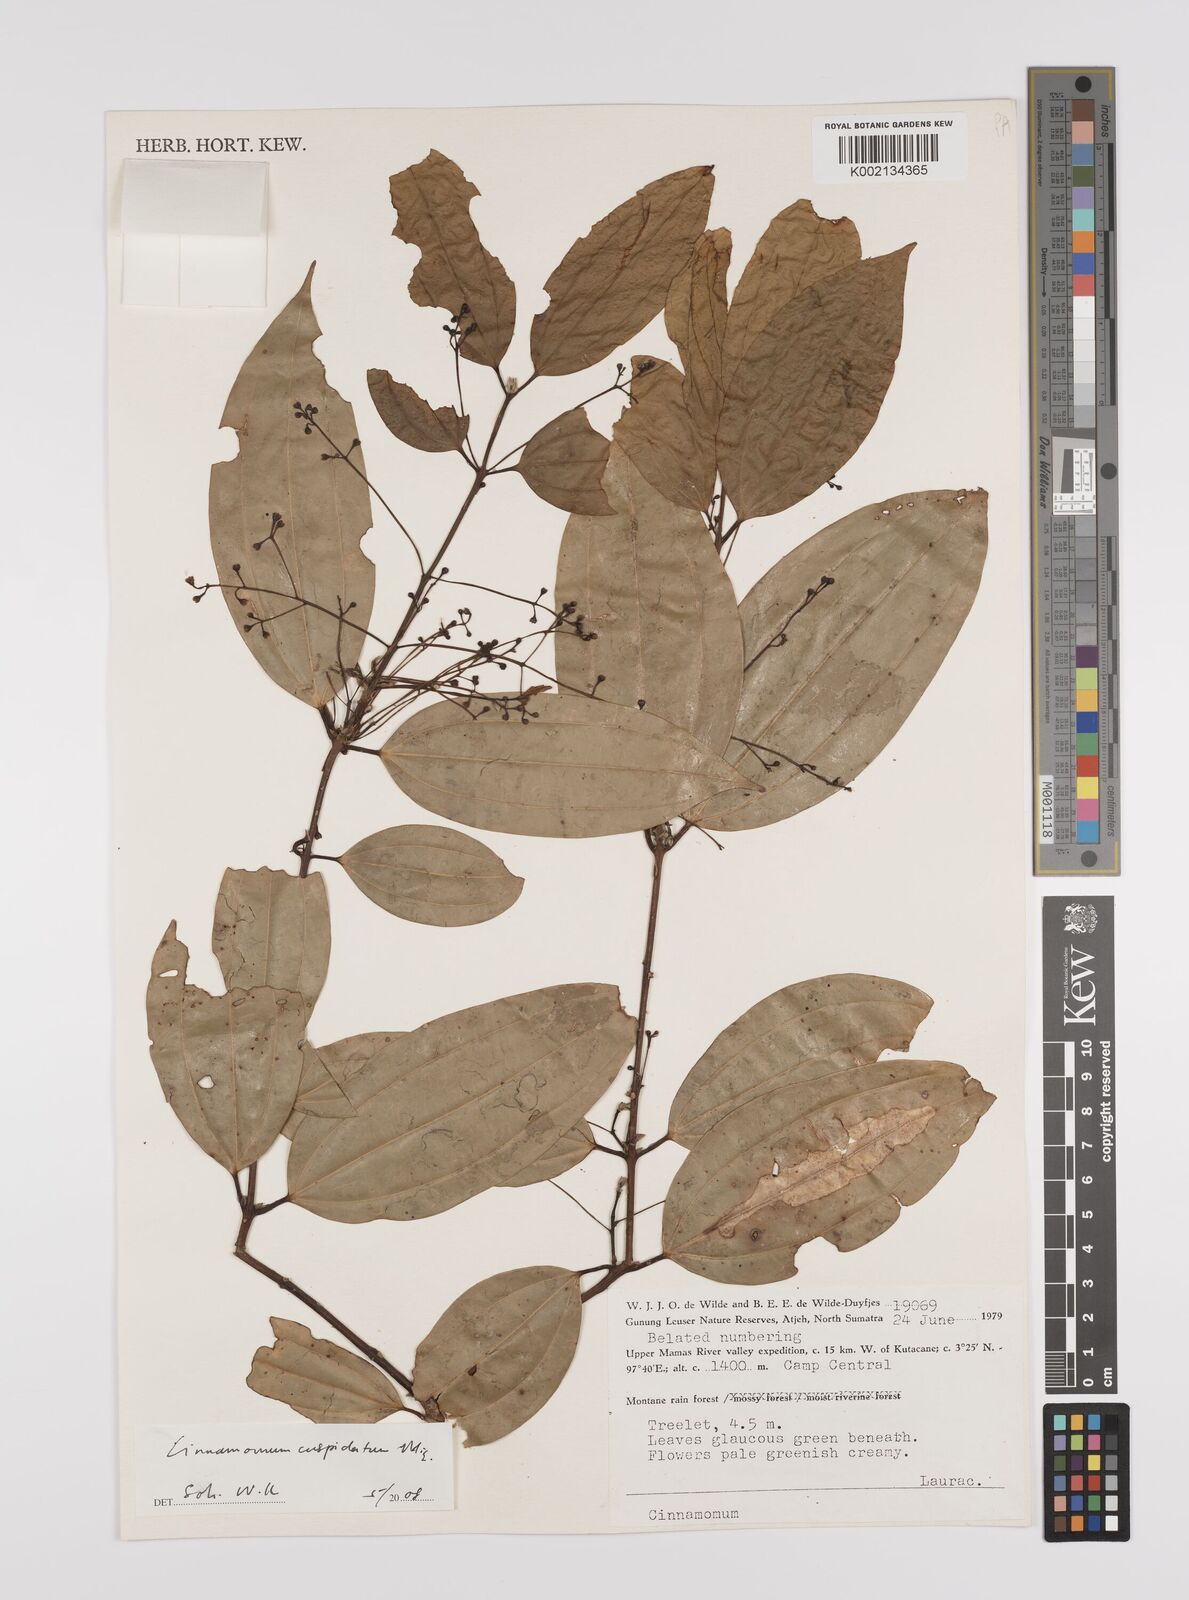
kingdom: Plantae
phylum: Tracheophyta
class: Magnoliopsida
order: Laurales
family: Lauraceae
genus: Cinnamomum
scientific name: Cinnamomum cuspidatum
